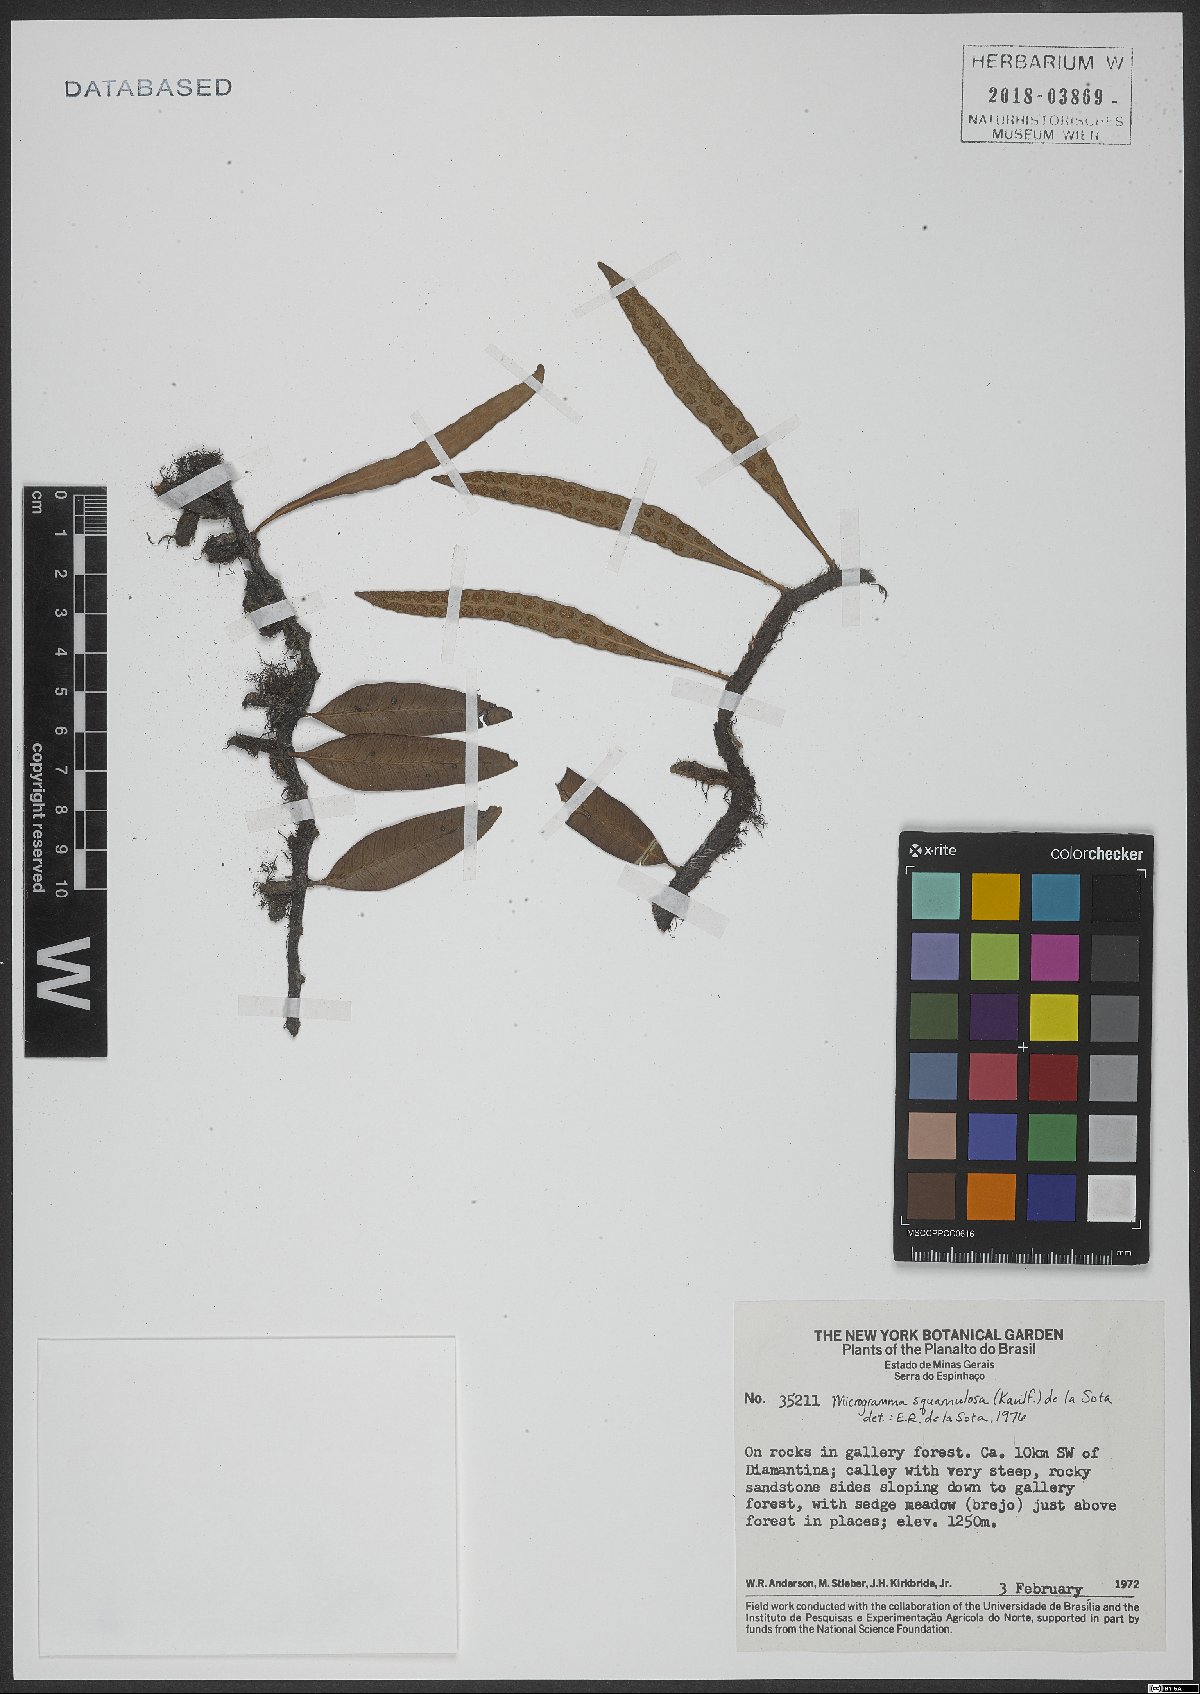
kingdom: Plantae
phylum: Tracheophyta
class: Polypodiopsida
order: Polypodiales
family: Polypodiaceae
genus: Microgramma
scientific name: Microgramma squamulosa
